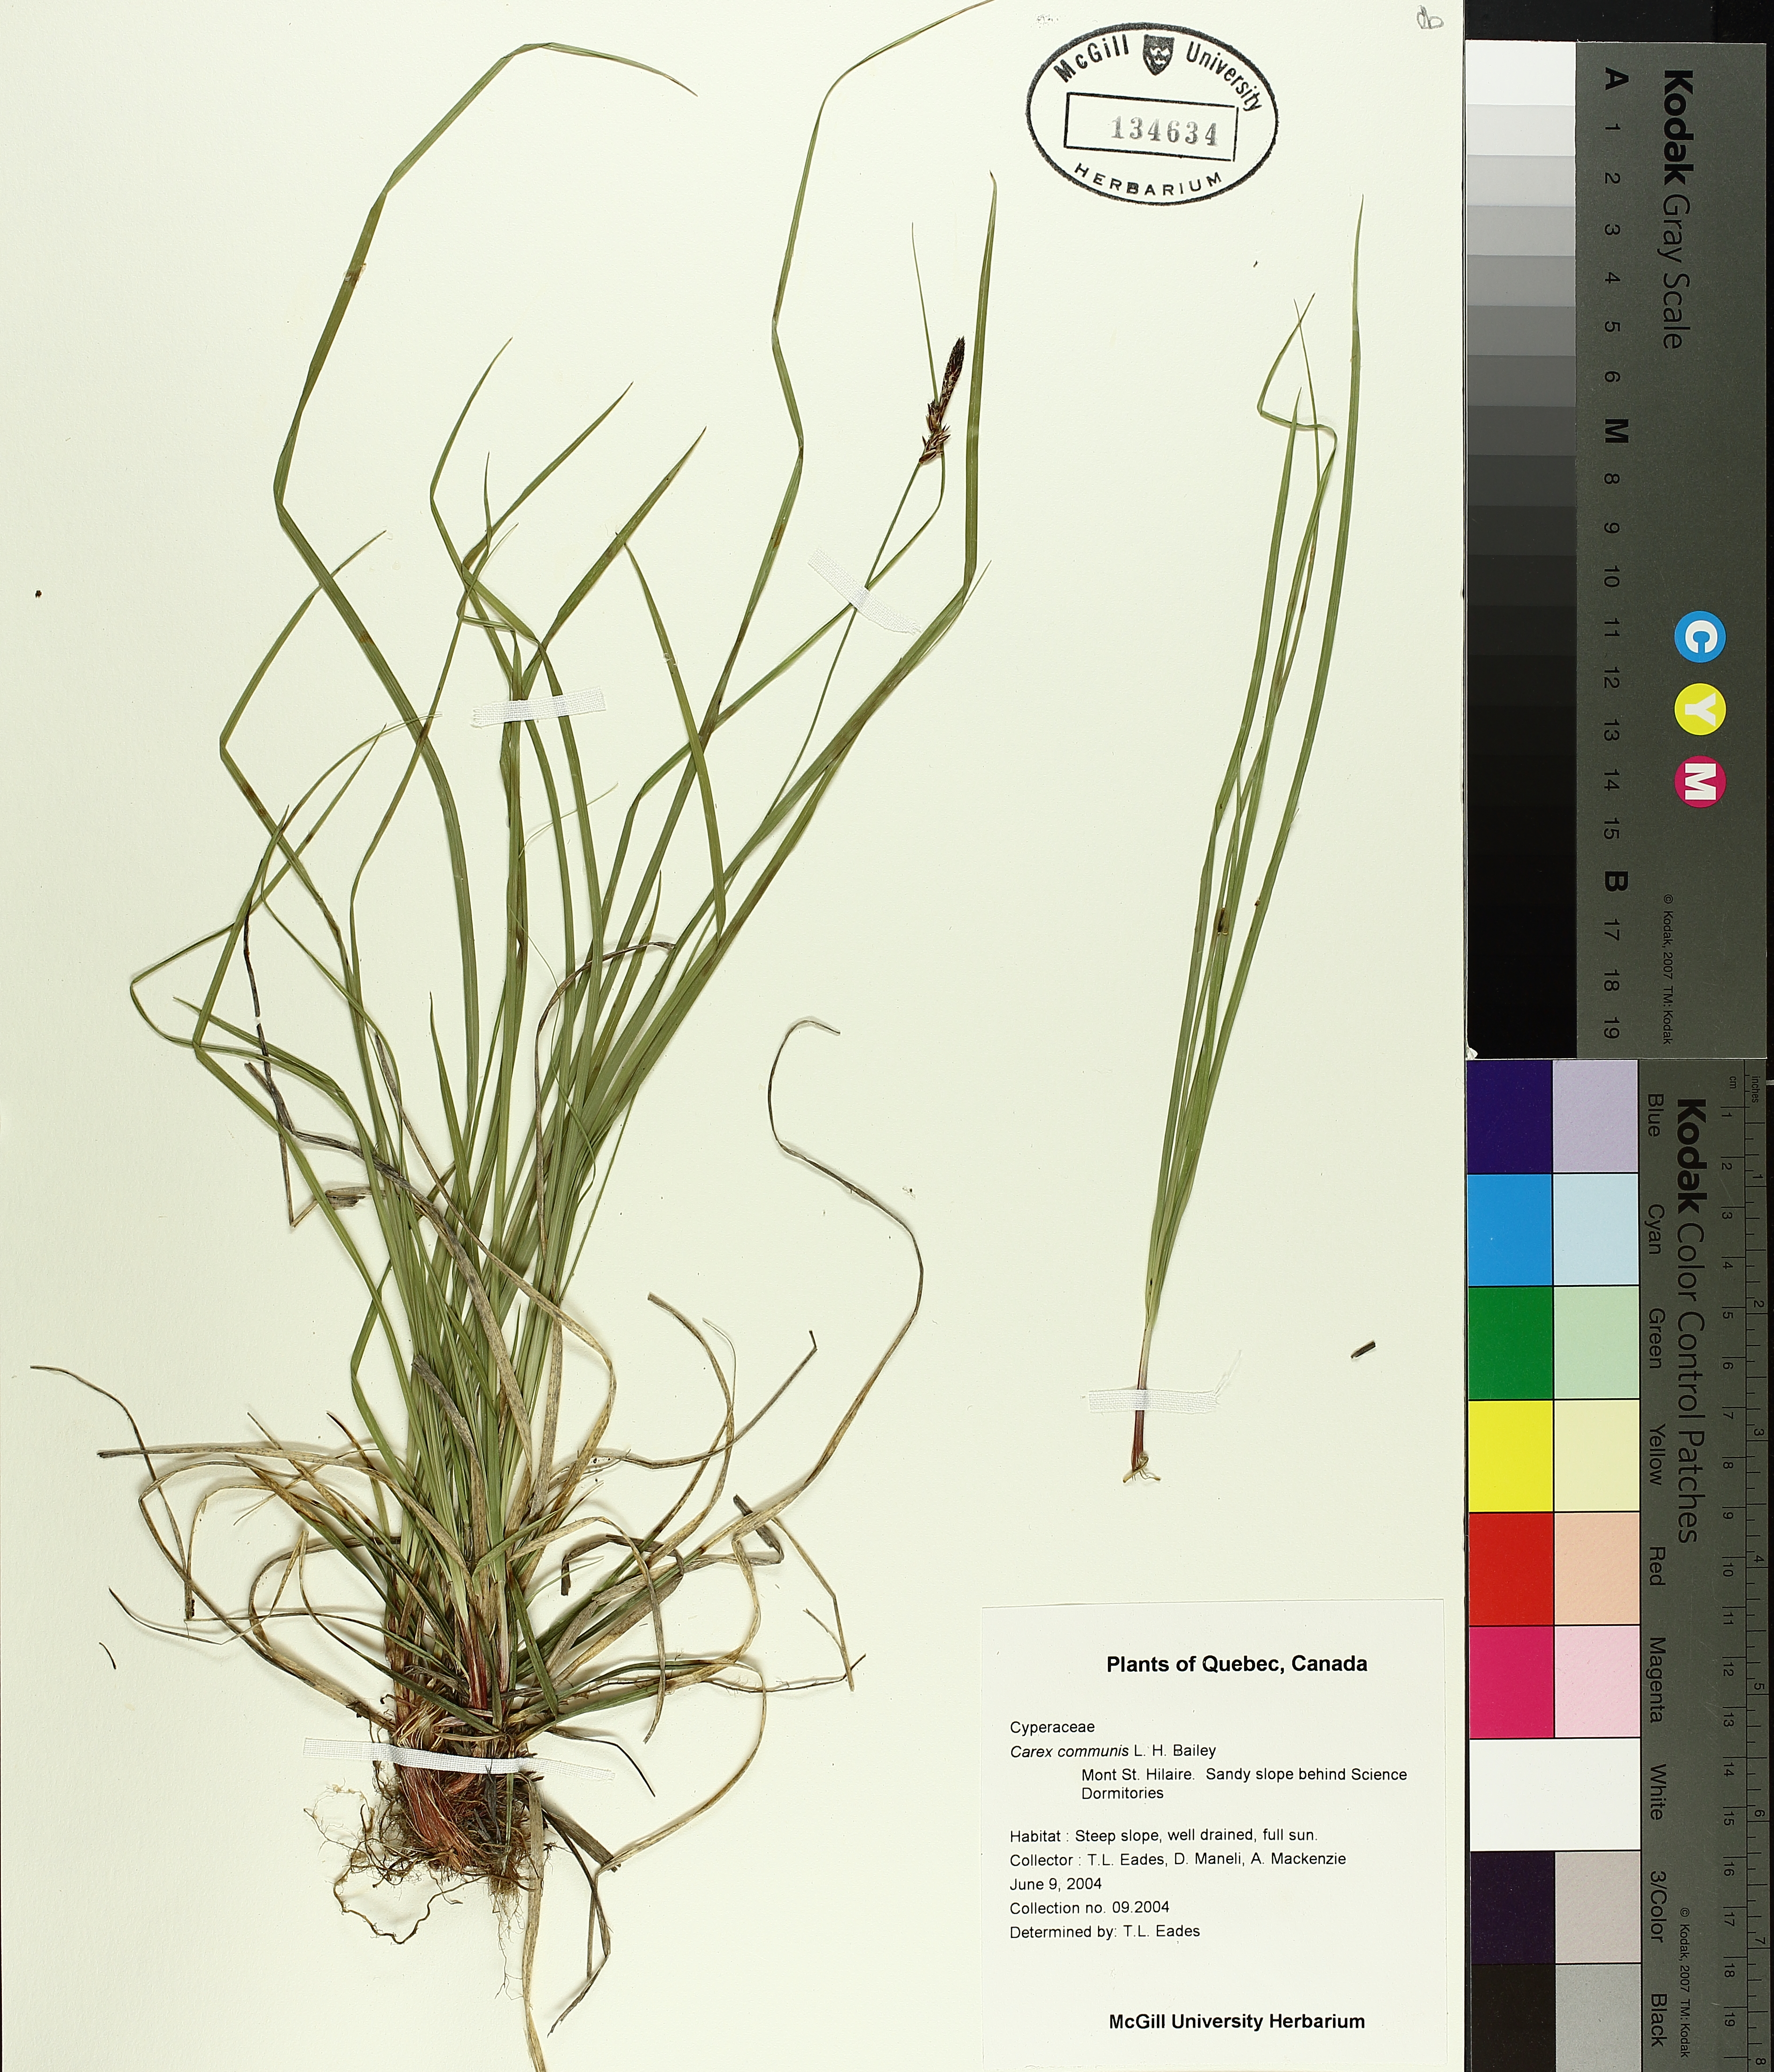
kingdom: Plantae
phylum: Tracheophyta
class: Liliopsida
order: Poales
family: Cyperaceae
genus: Carex
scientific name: Carex communis
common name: Colonial oak sedge
